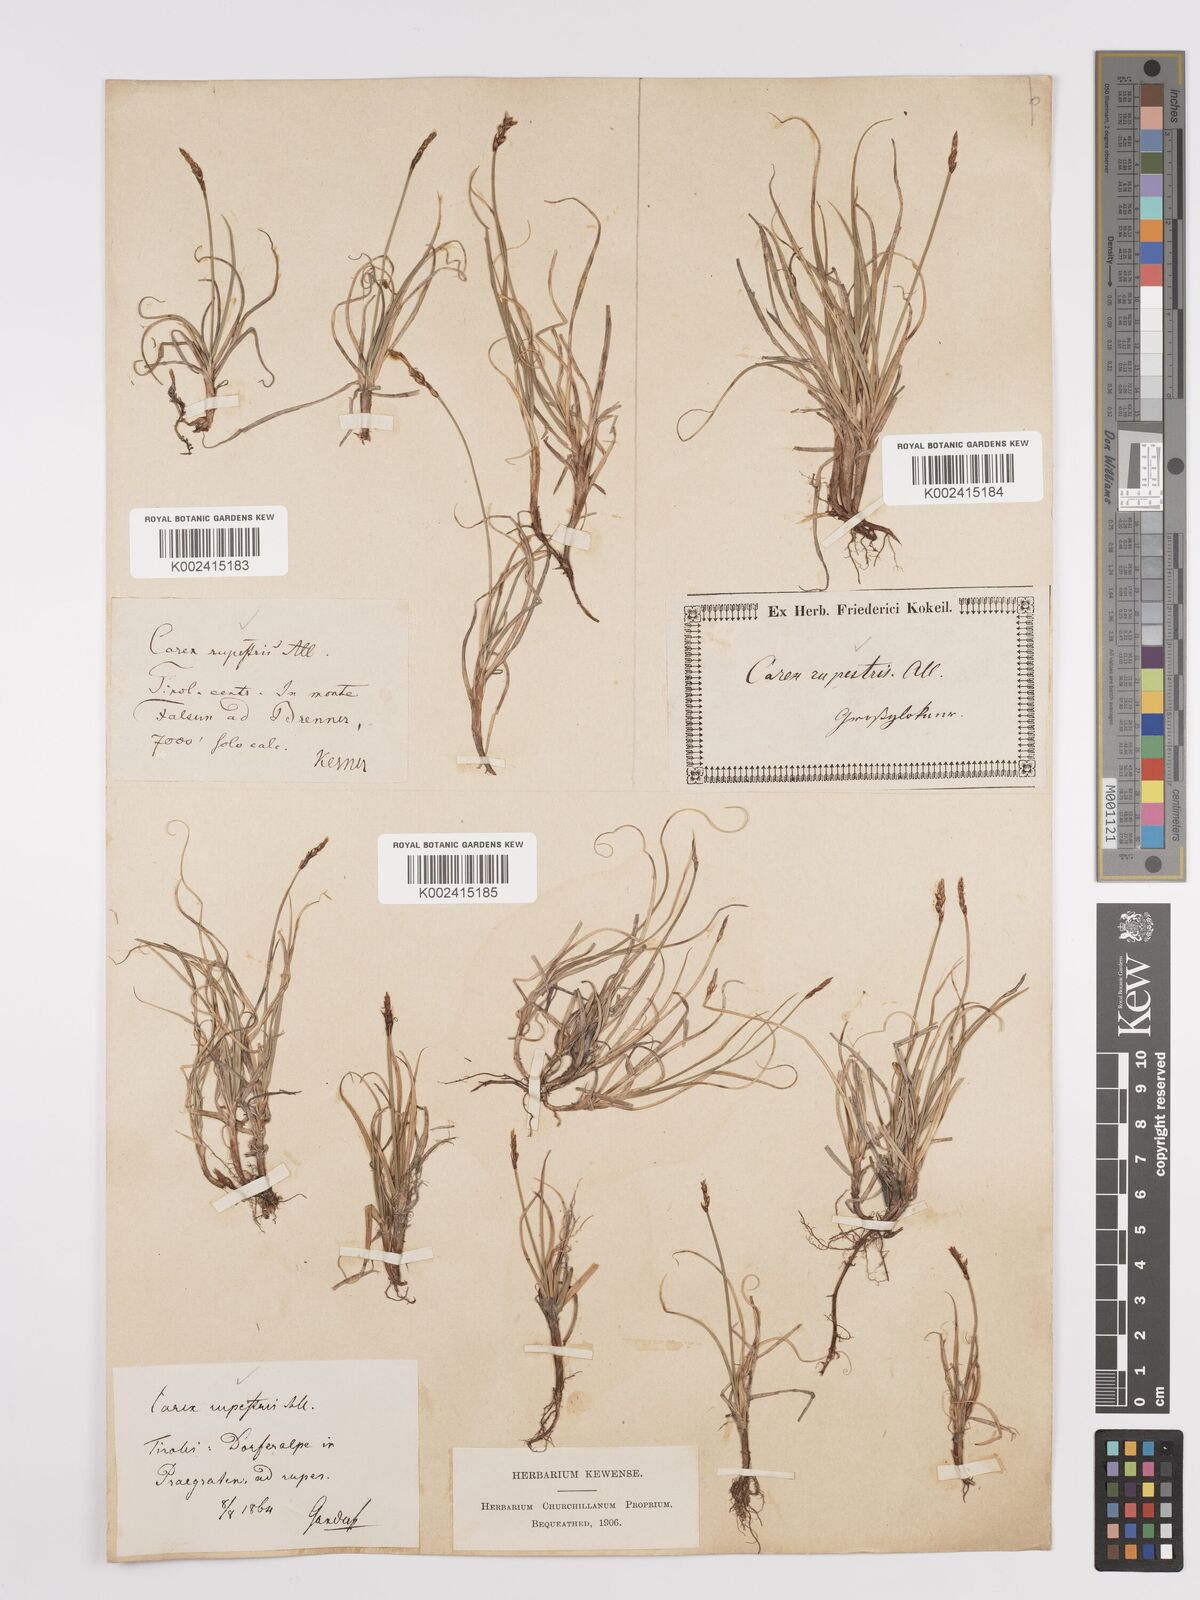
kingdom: Plantae
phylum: Tracheophyta
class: Liliopsida
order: Poales
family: Cyperaceae
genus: Carex
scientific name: Carex rupestris
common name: Rock sedge
